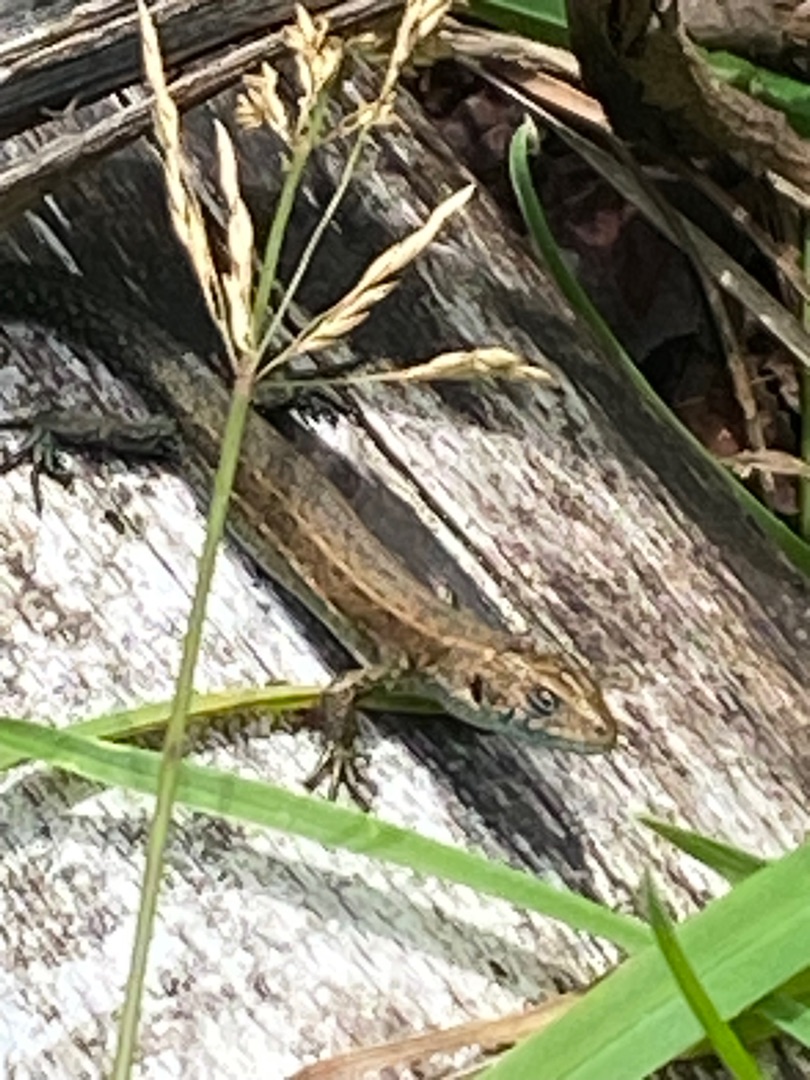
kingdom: Animalia
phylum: Chordata
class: Squamata
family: Lacertidae
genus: Zootoca
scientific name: Zootoca vivipara
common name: Skovfirben
